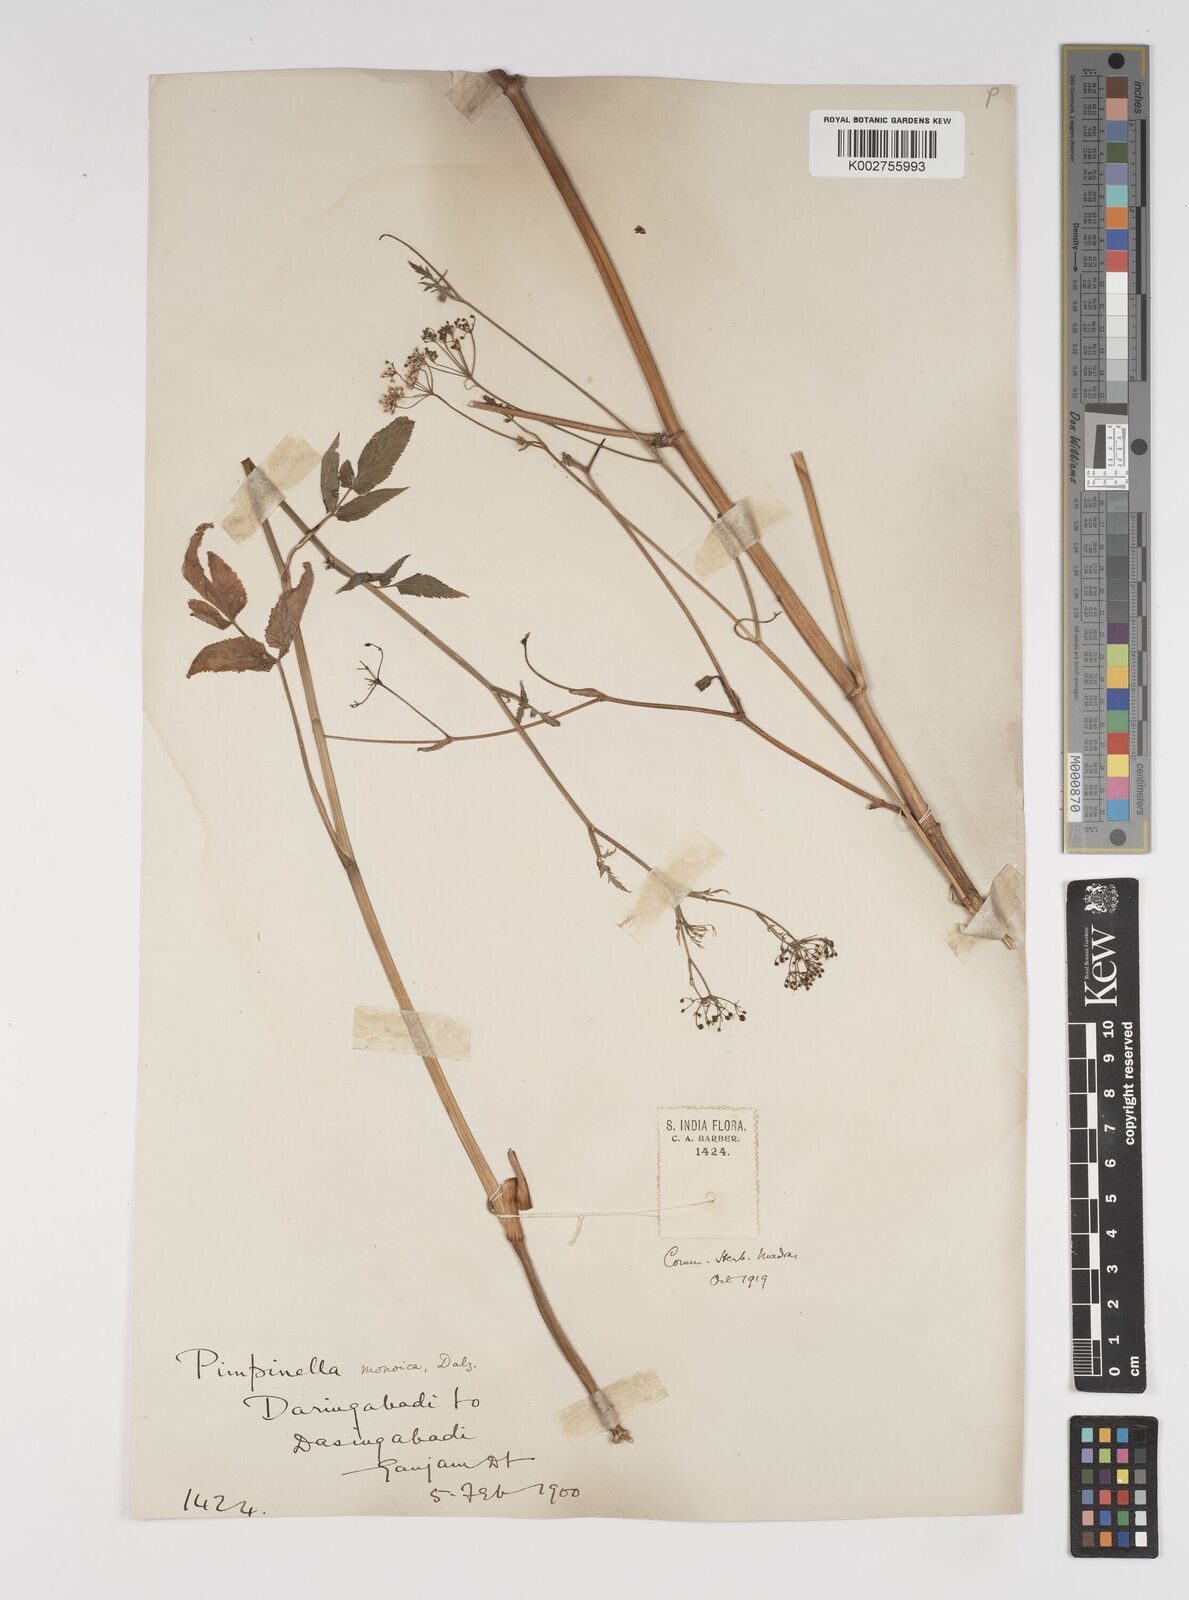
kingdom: Plantae
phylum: Tracheophyta
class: Magnoliopsida
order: Apiales
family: Apiaceae
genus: Pimpinella
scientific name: Pimpinella wallichiana
